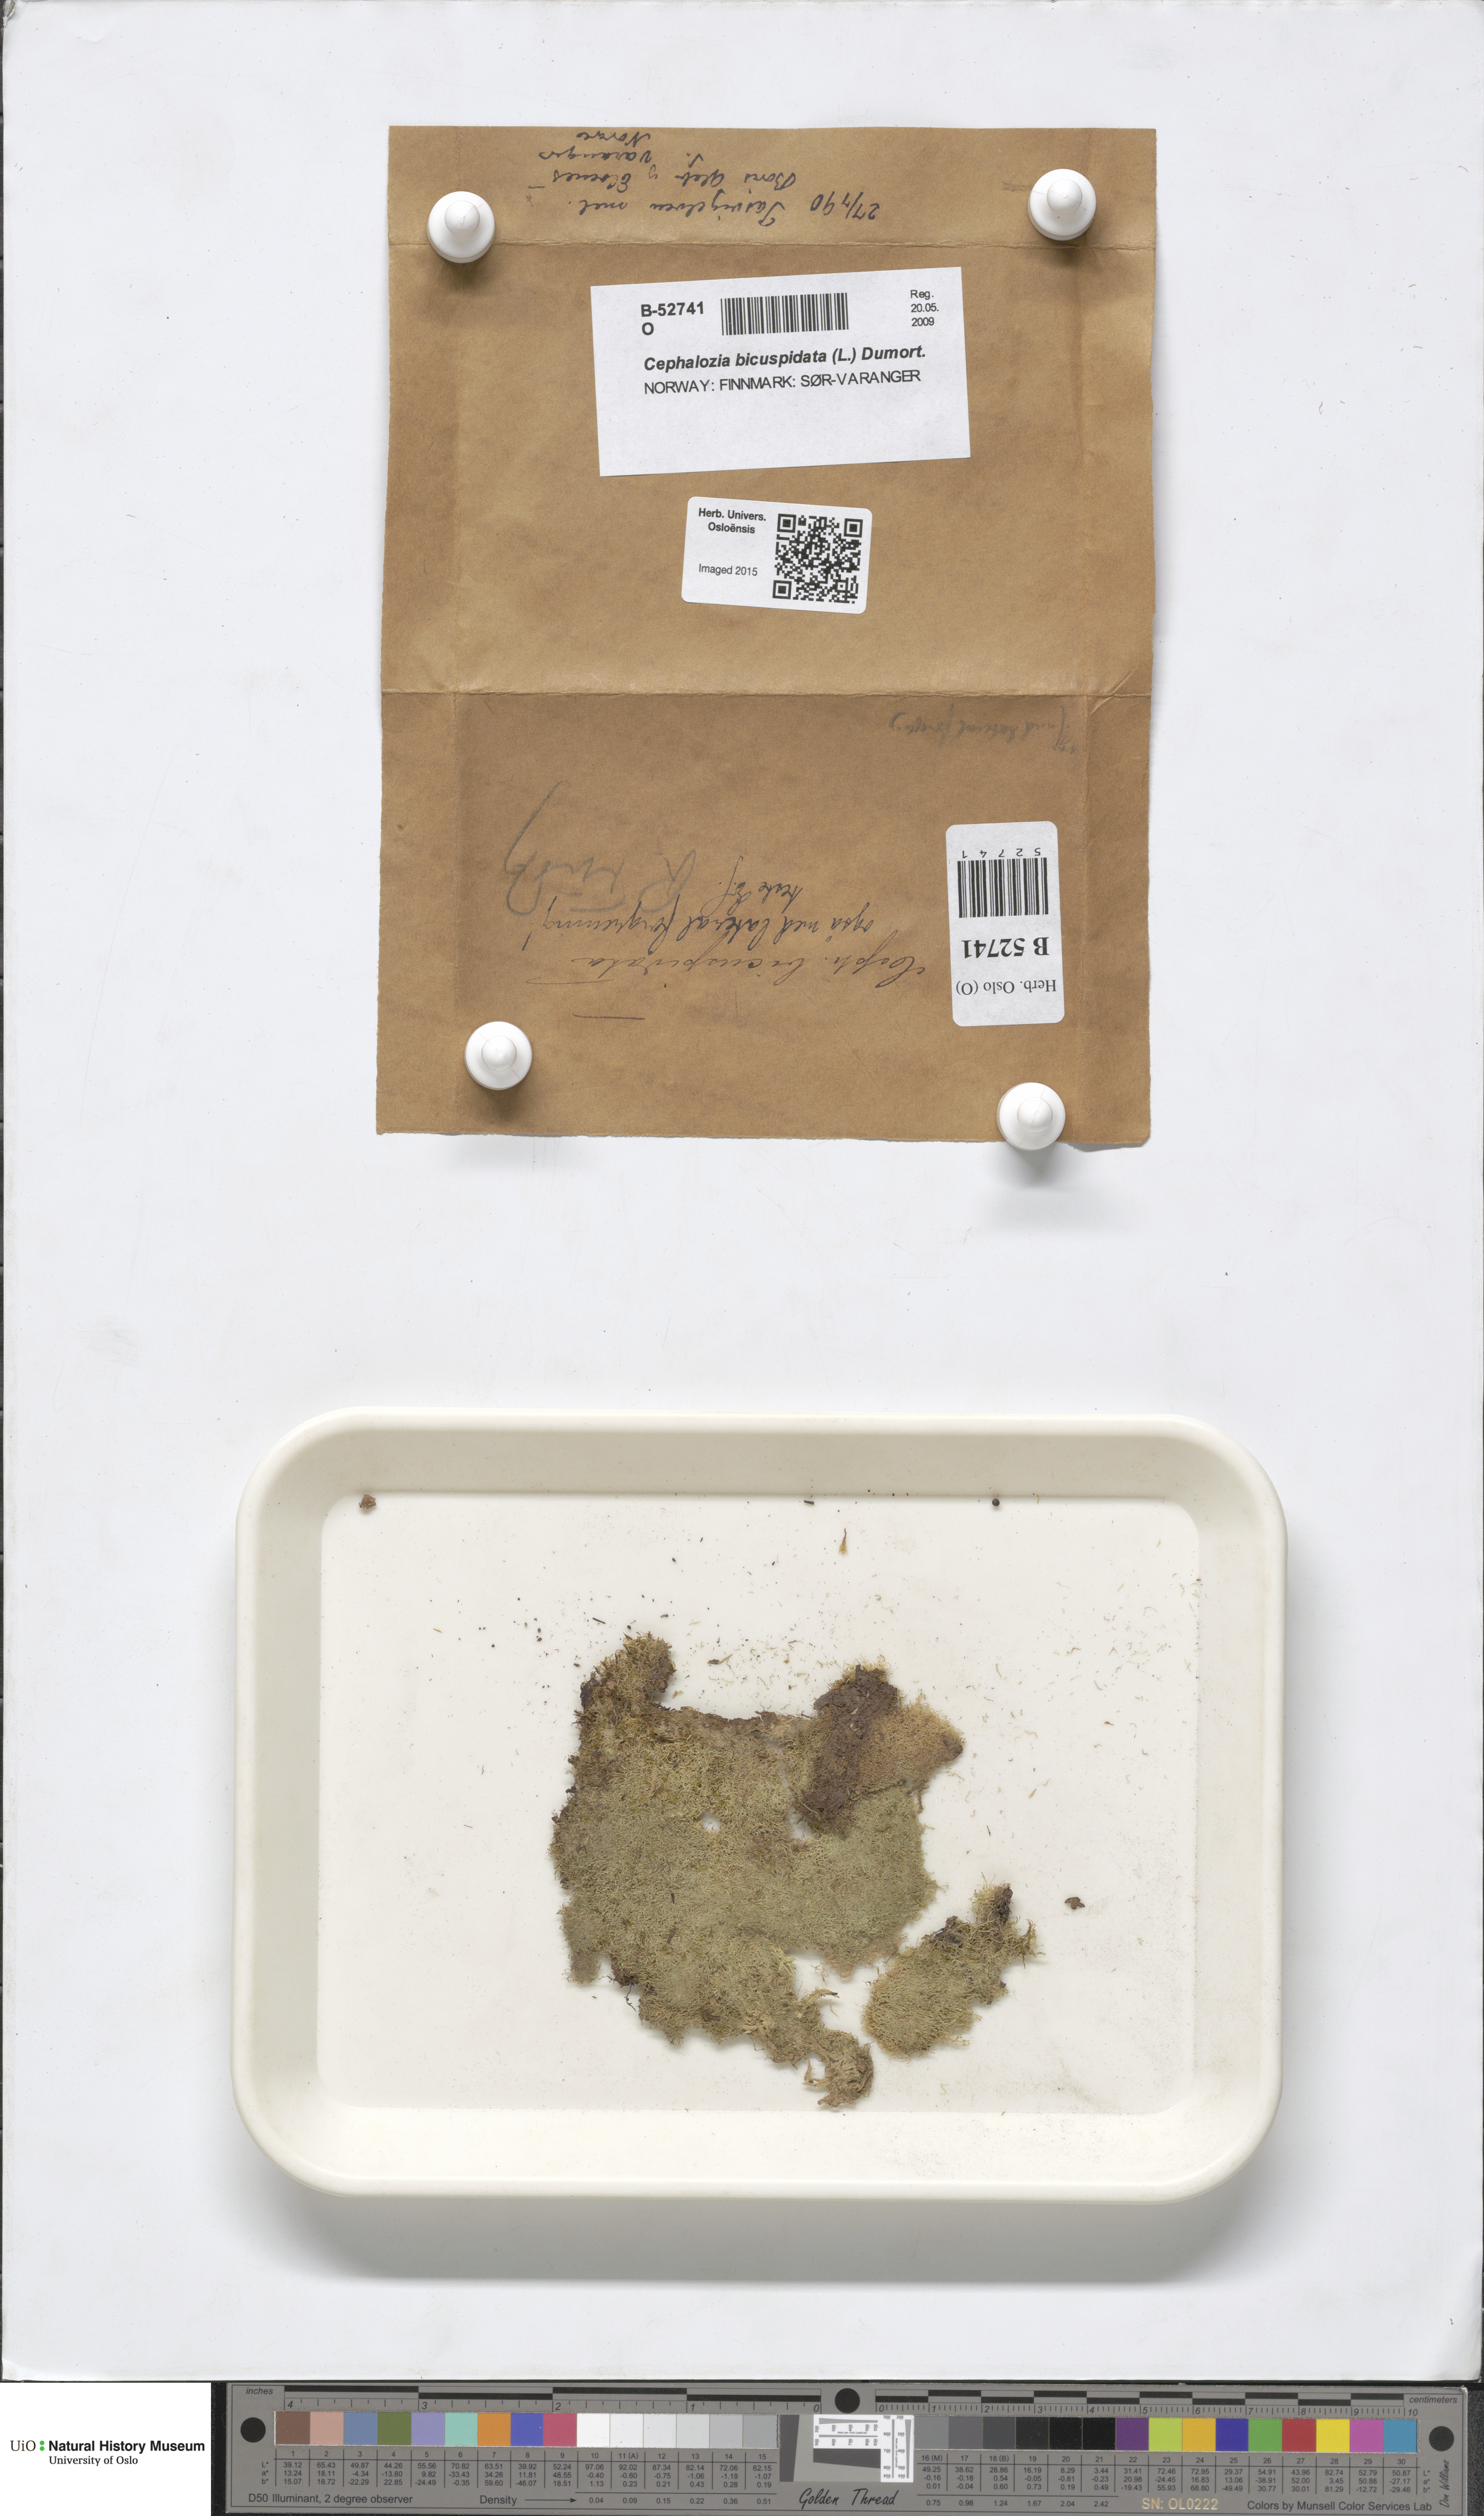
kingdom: Plantae
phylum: Marchantiophyta
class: Jungermanniopsida
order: Jungermanniales
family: Cephaloziaceae
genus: Cephalozia
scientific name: Cephalozia bicuspidata
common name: Two-horned pincerwort
